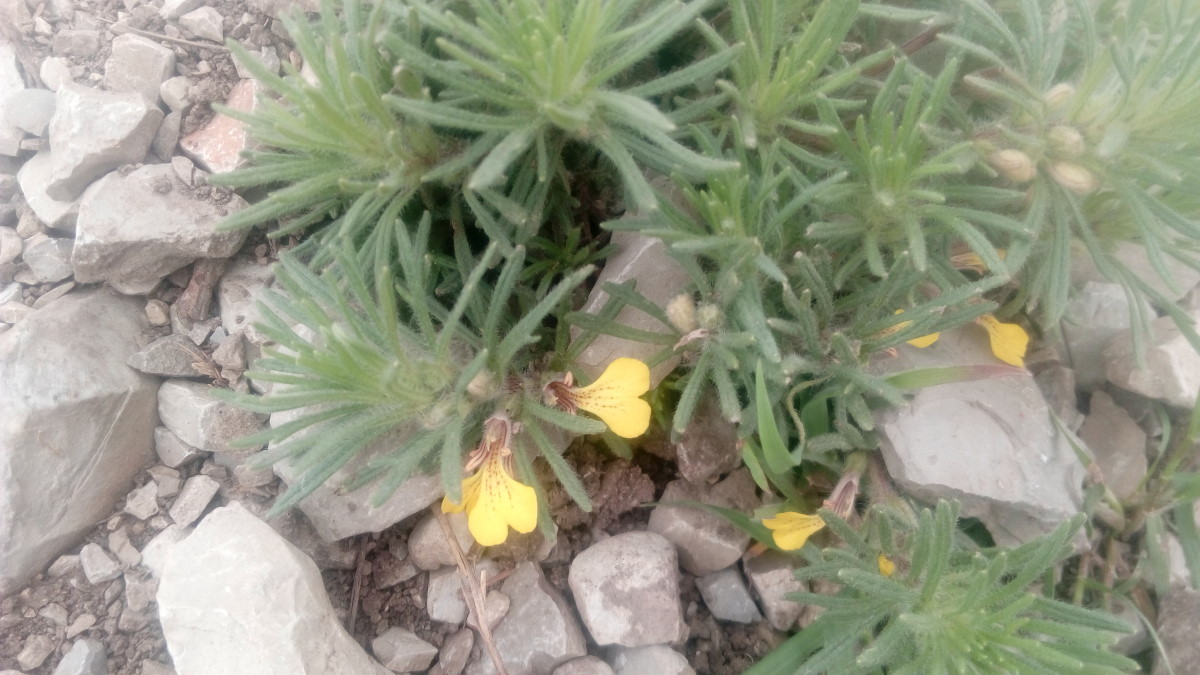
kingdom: Plantae
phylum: Tracheophyta
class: Magnoliopsida
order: Lamiales
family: Lamiaceae
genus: Ajuga
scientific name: Ajuga chamaepitys
